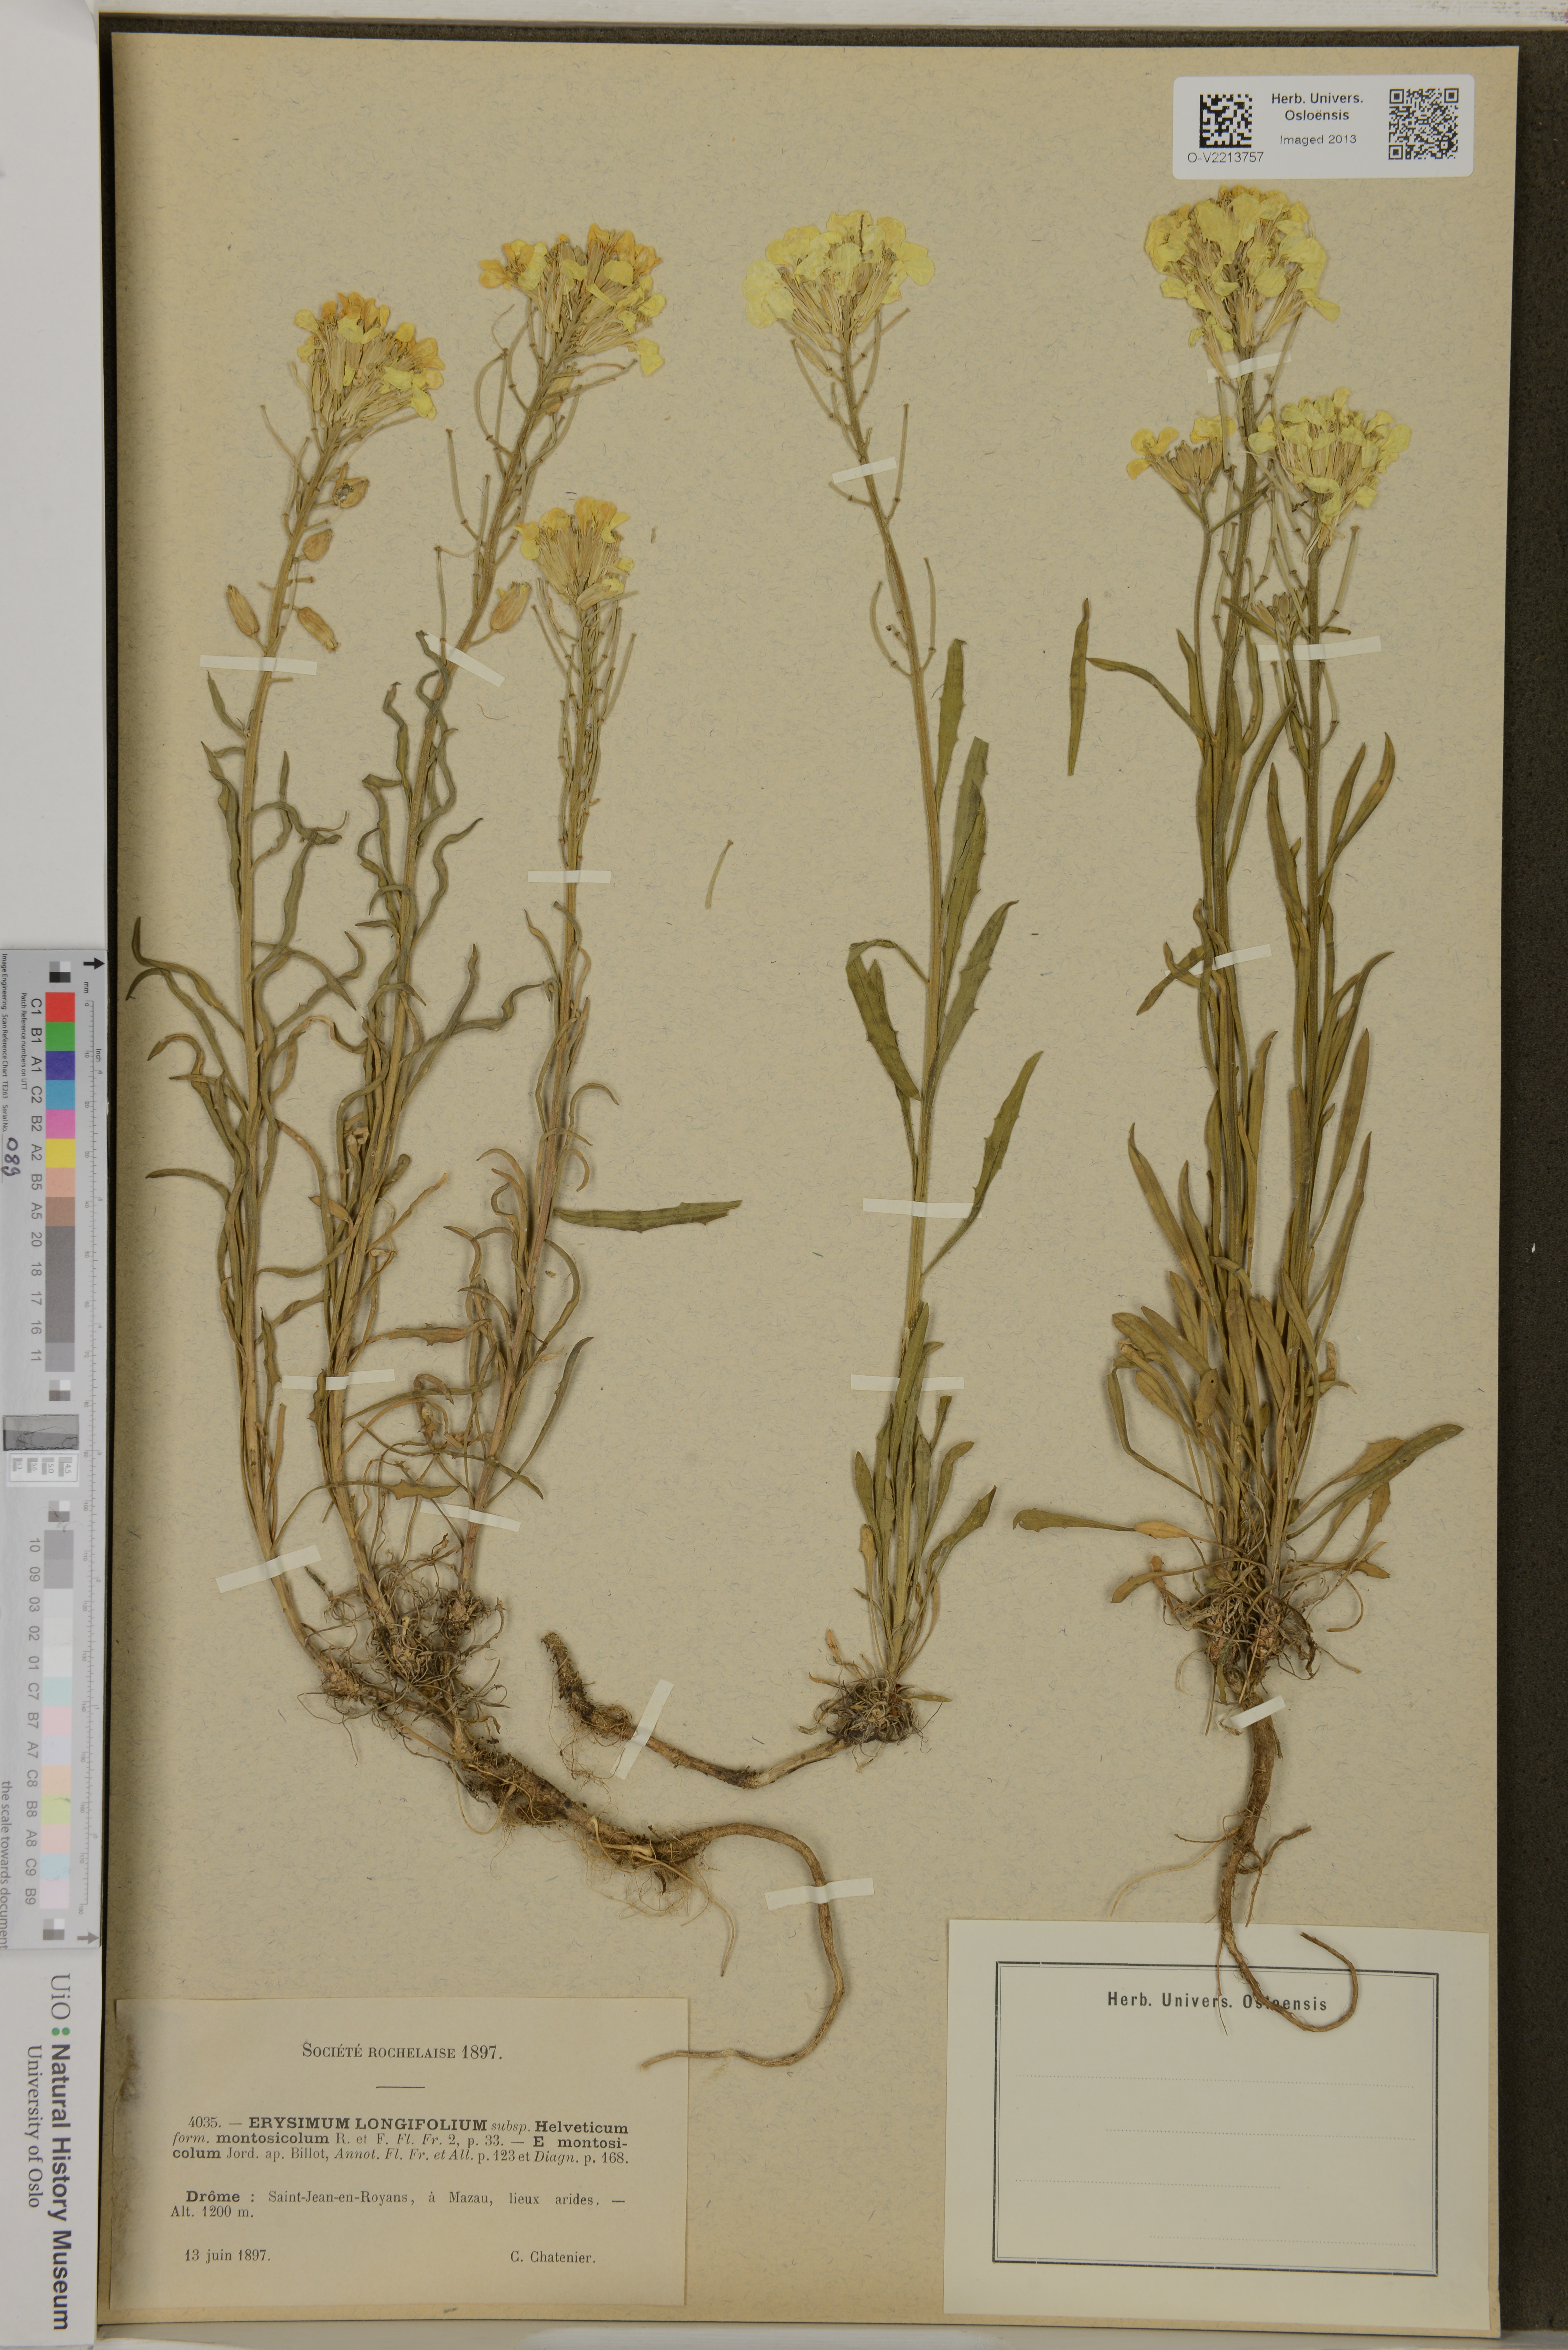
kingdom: Plantae
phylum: Tracheophyta
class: Magnoliopsida
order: Brassicales
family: Brassicaceae
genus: Erysimum
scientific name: Erysimum duriaei
